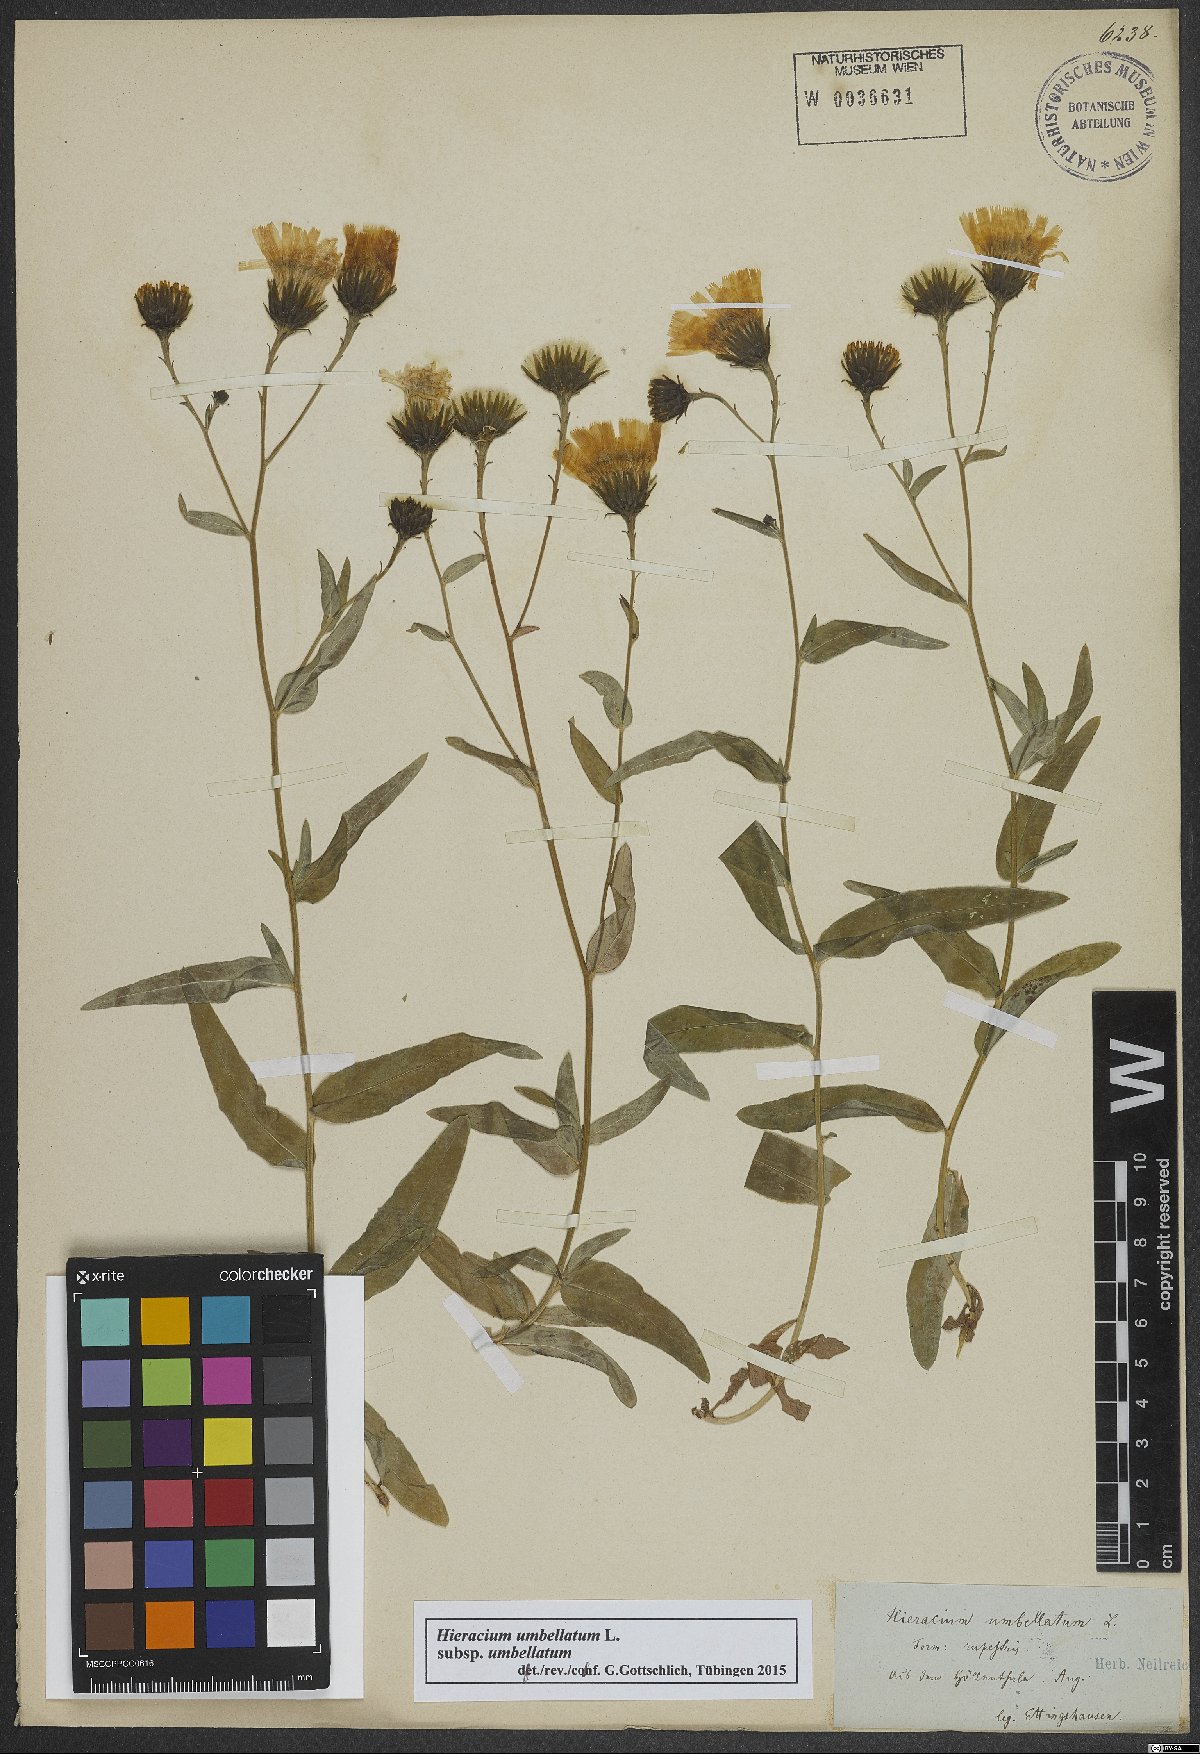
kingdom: Plantae
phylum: Tracheophyta
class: Magnoliopsida
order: Asterales
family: Asteraceae
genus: Hieracium
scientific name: Hieracium umbellatum
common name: Northern hawkweed
